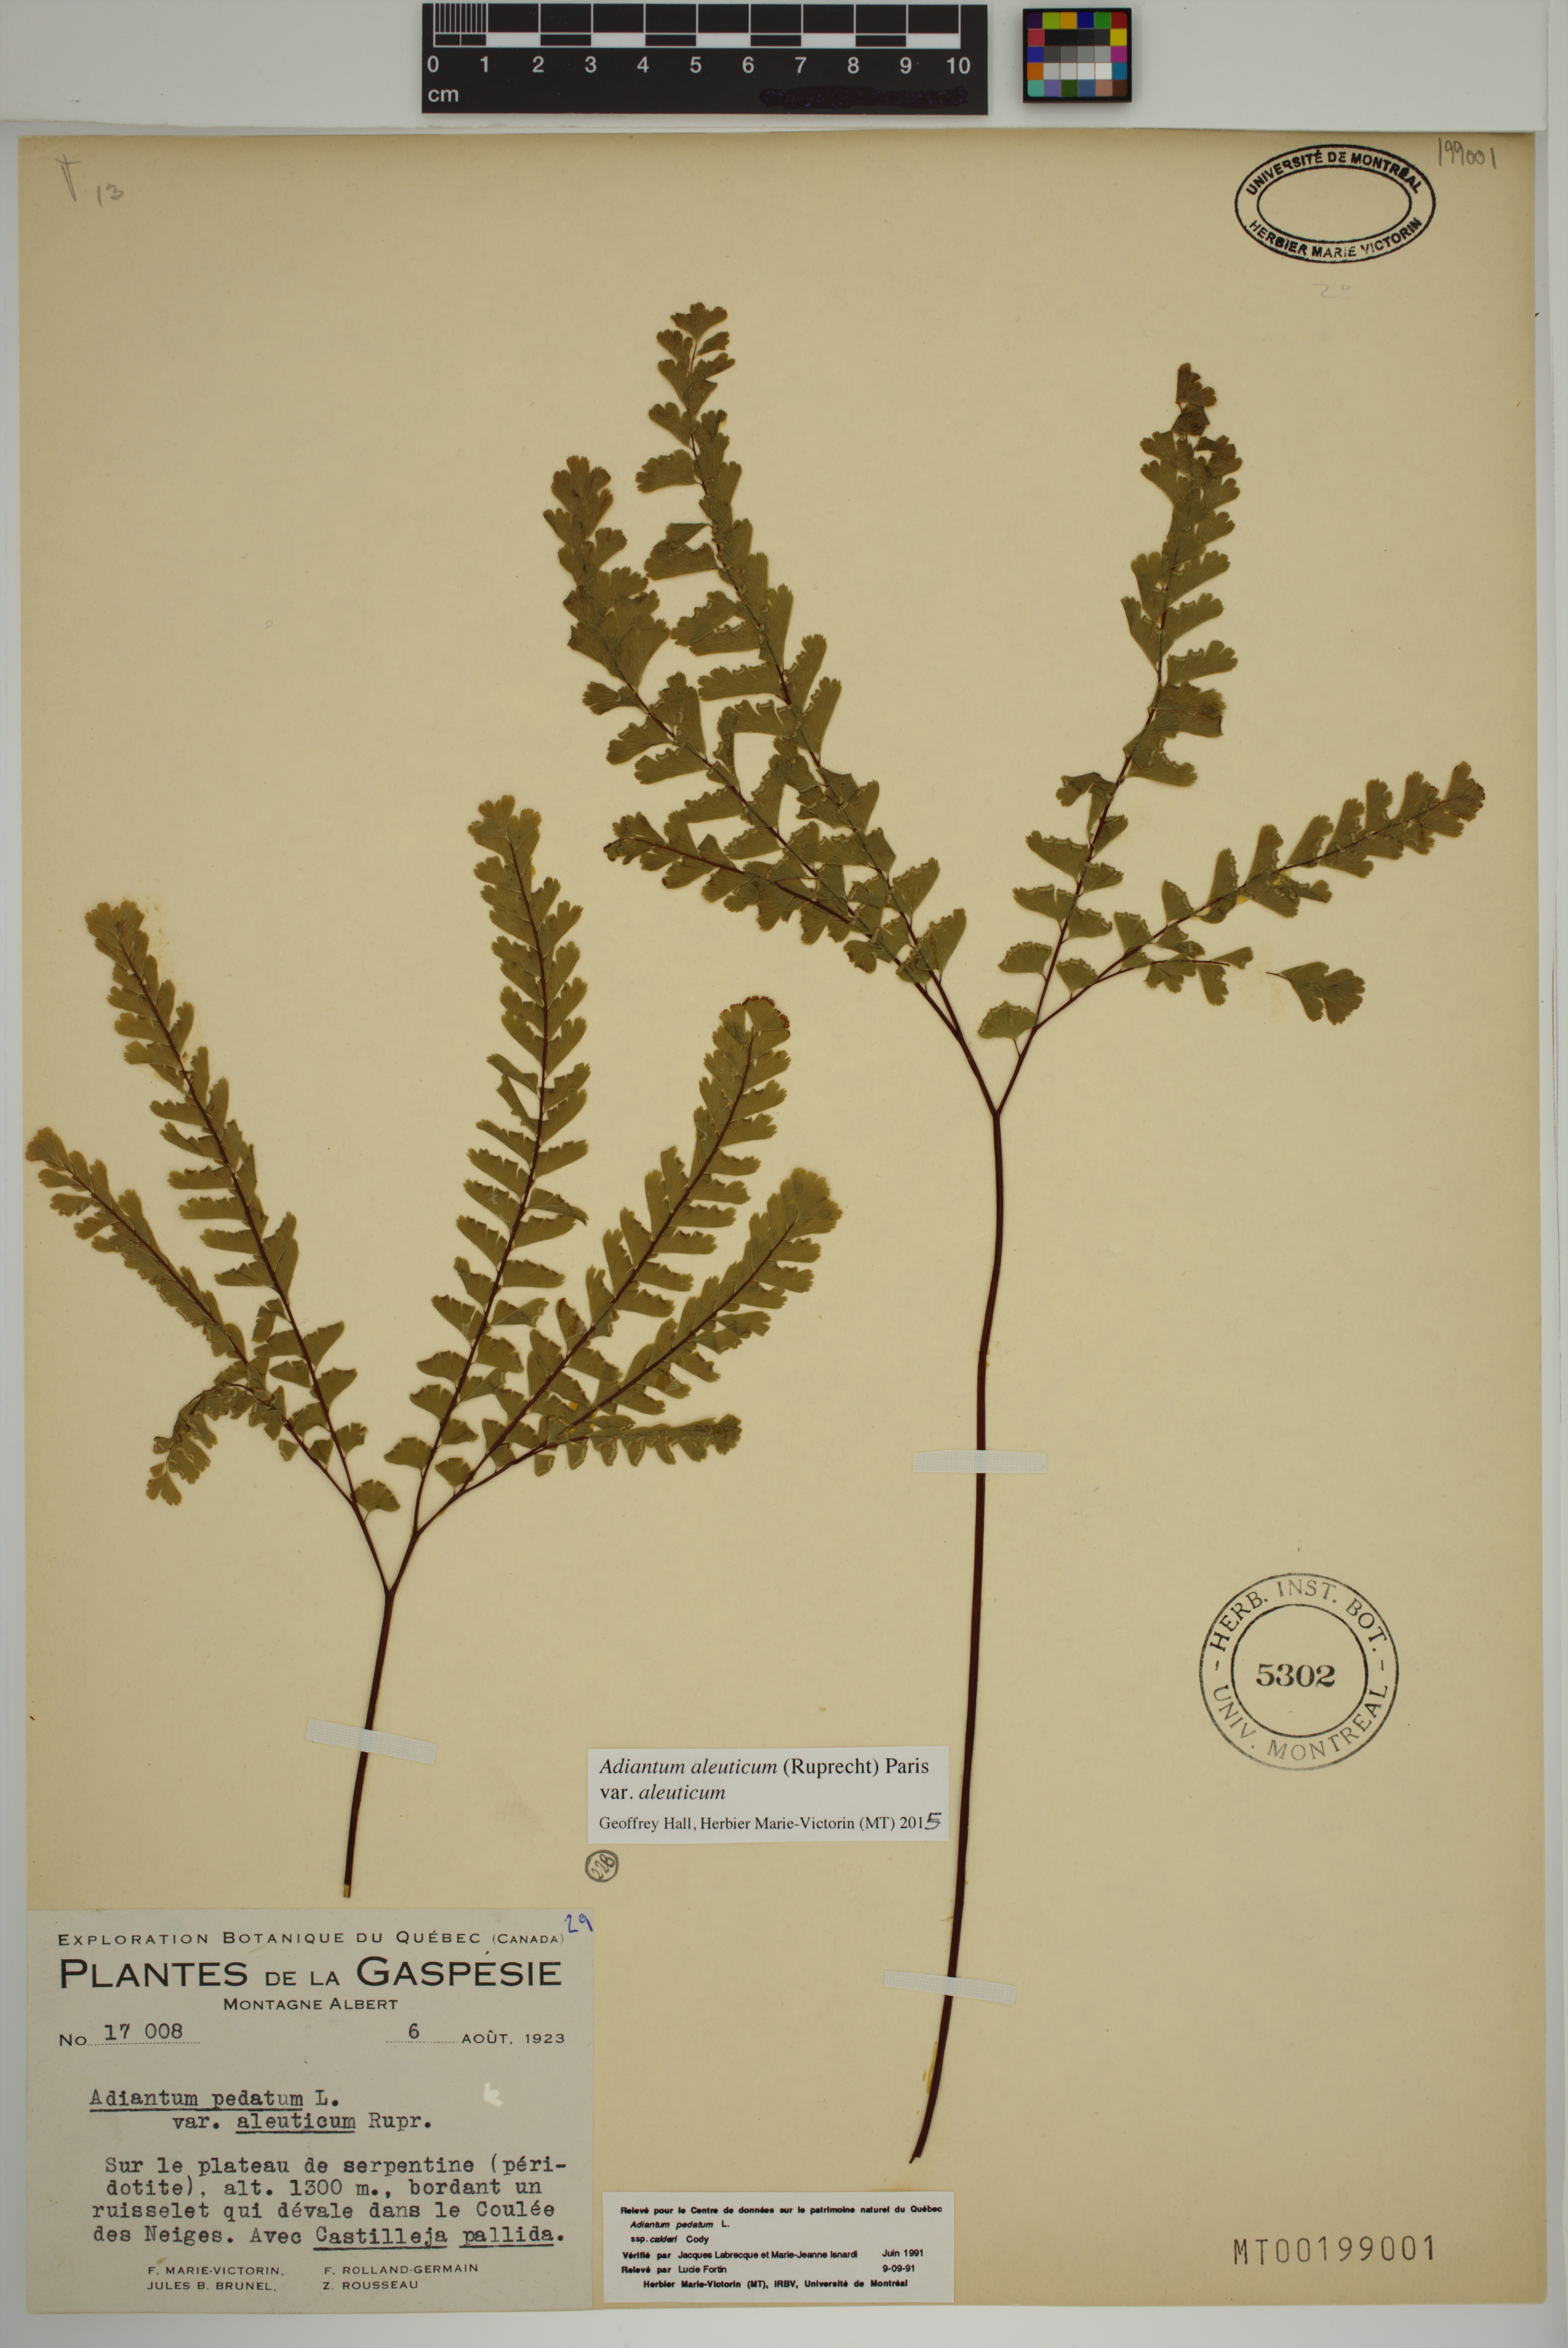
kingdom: Plantae
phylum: Tracheophyta
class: Polypodiopsida
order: Polypodiales
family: Pteridaceae
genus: Adiantum
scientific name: Adiantum aleuticum
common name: Aleutian maidenhair fern
